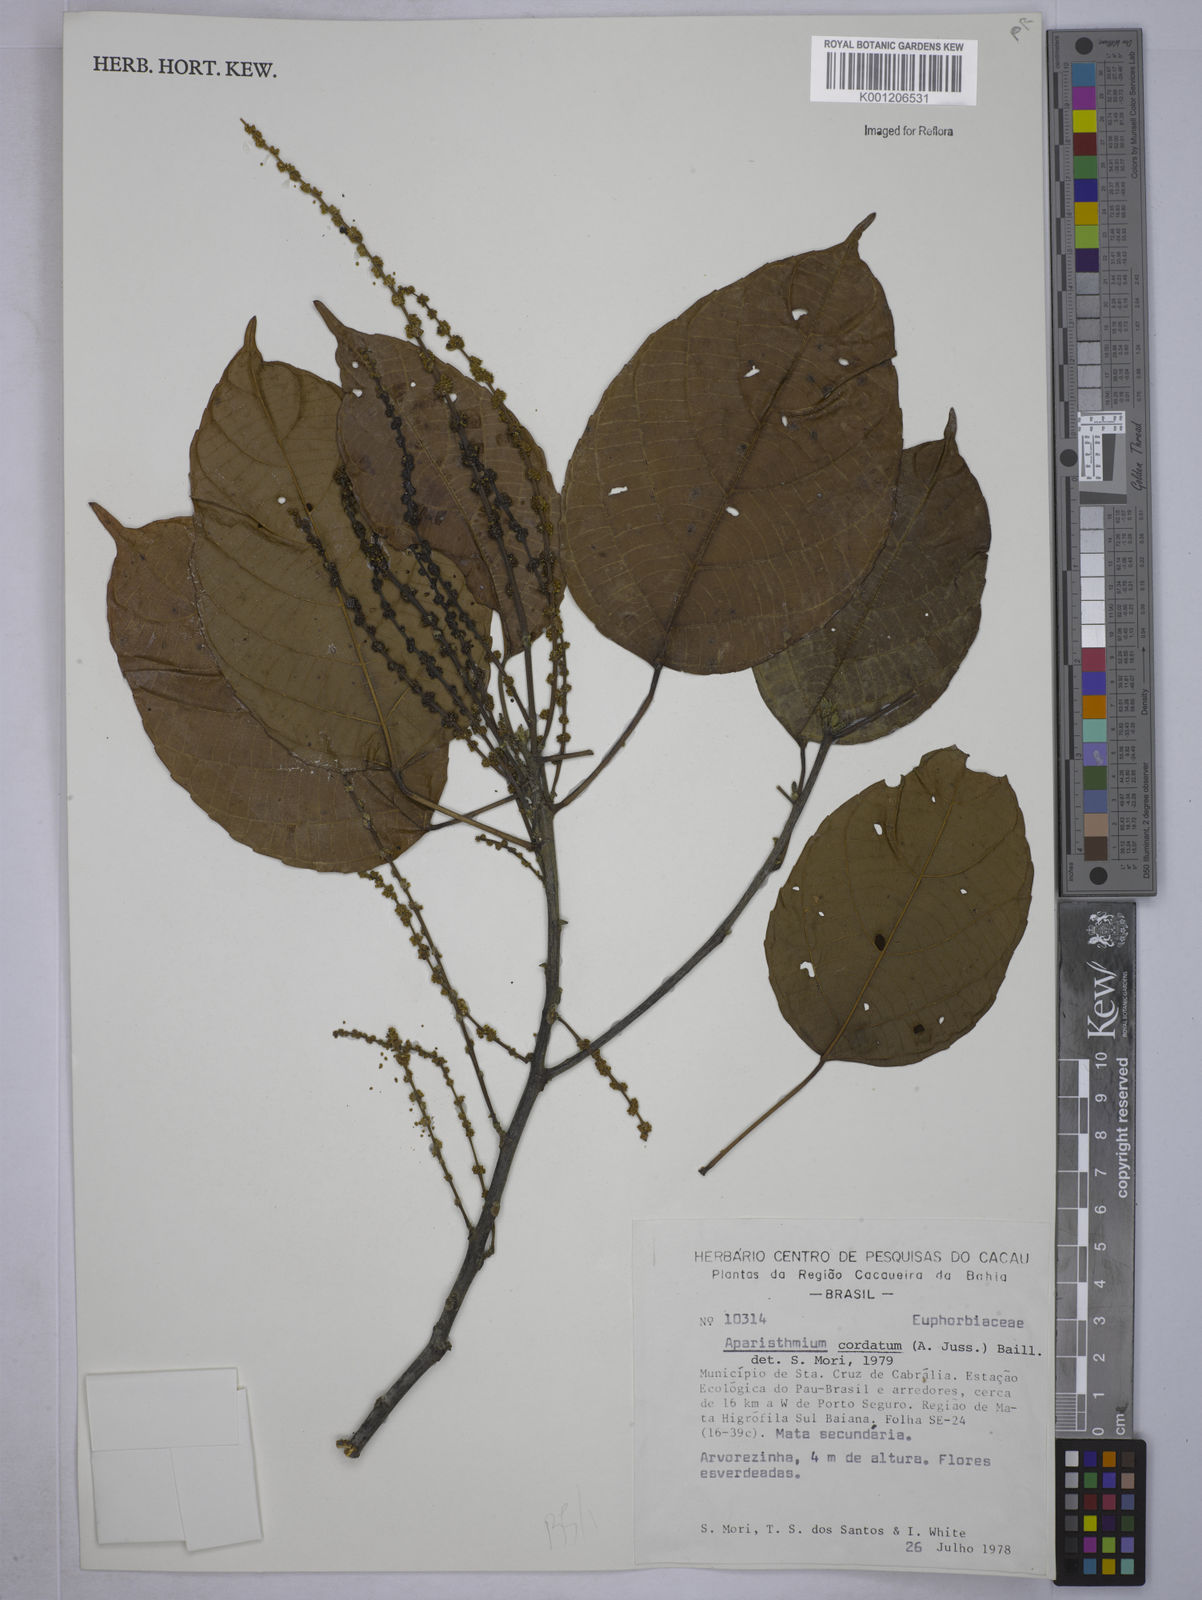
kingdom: Plantae
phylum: Tracheophyta
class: Magnoliopsida
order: Malpighiales
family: Euphorbiaceae
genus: Aparisthmium
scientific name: Aparisthmium cordatum
